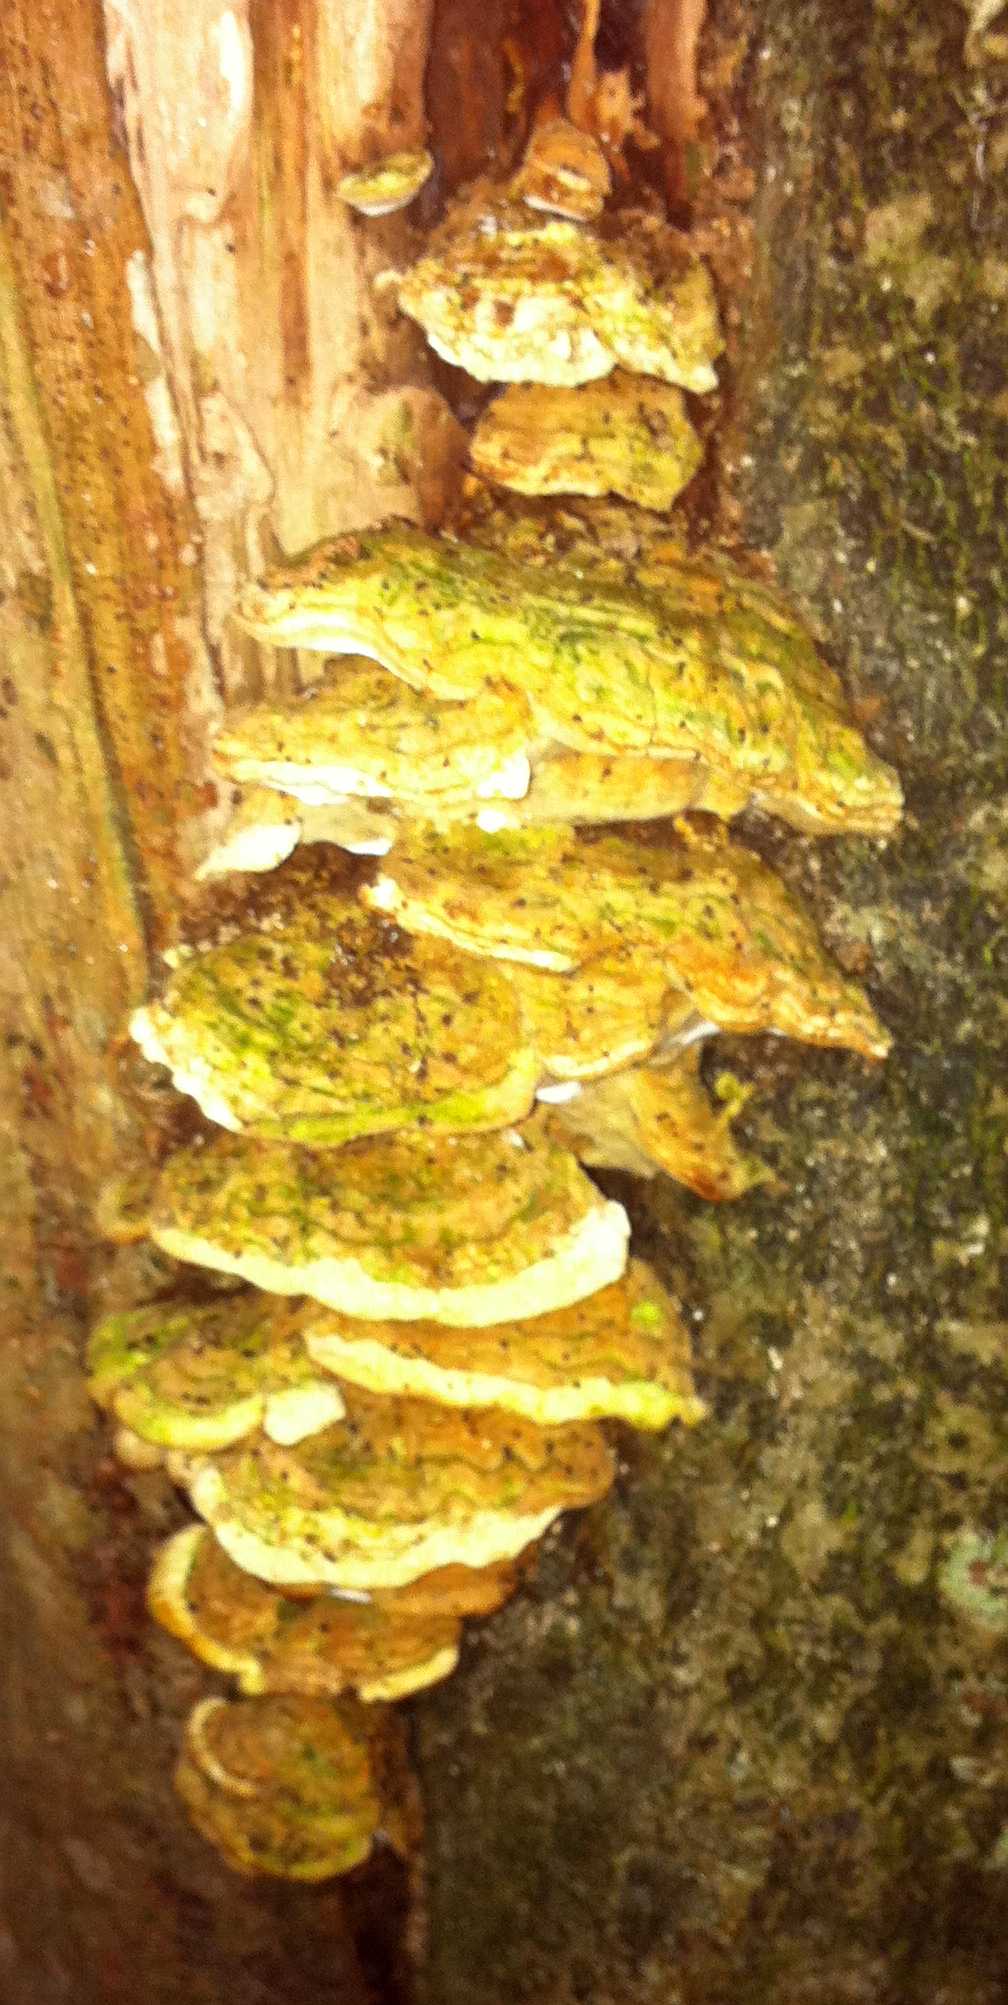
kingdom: Fungi
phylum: Basidiomycota
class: Agaricomycetes
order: Hymenochaetales
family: Oxyporaceae
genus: Oxyporus
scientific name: Oxyporus populinus
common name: sammenvokset trylleporesvamp
